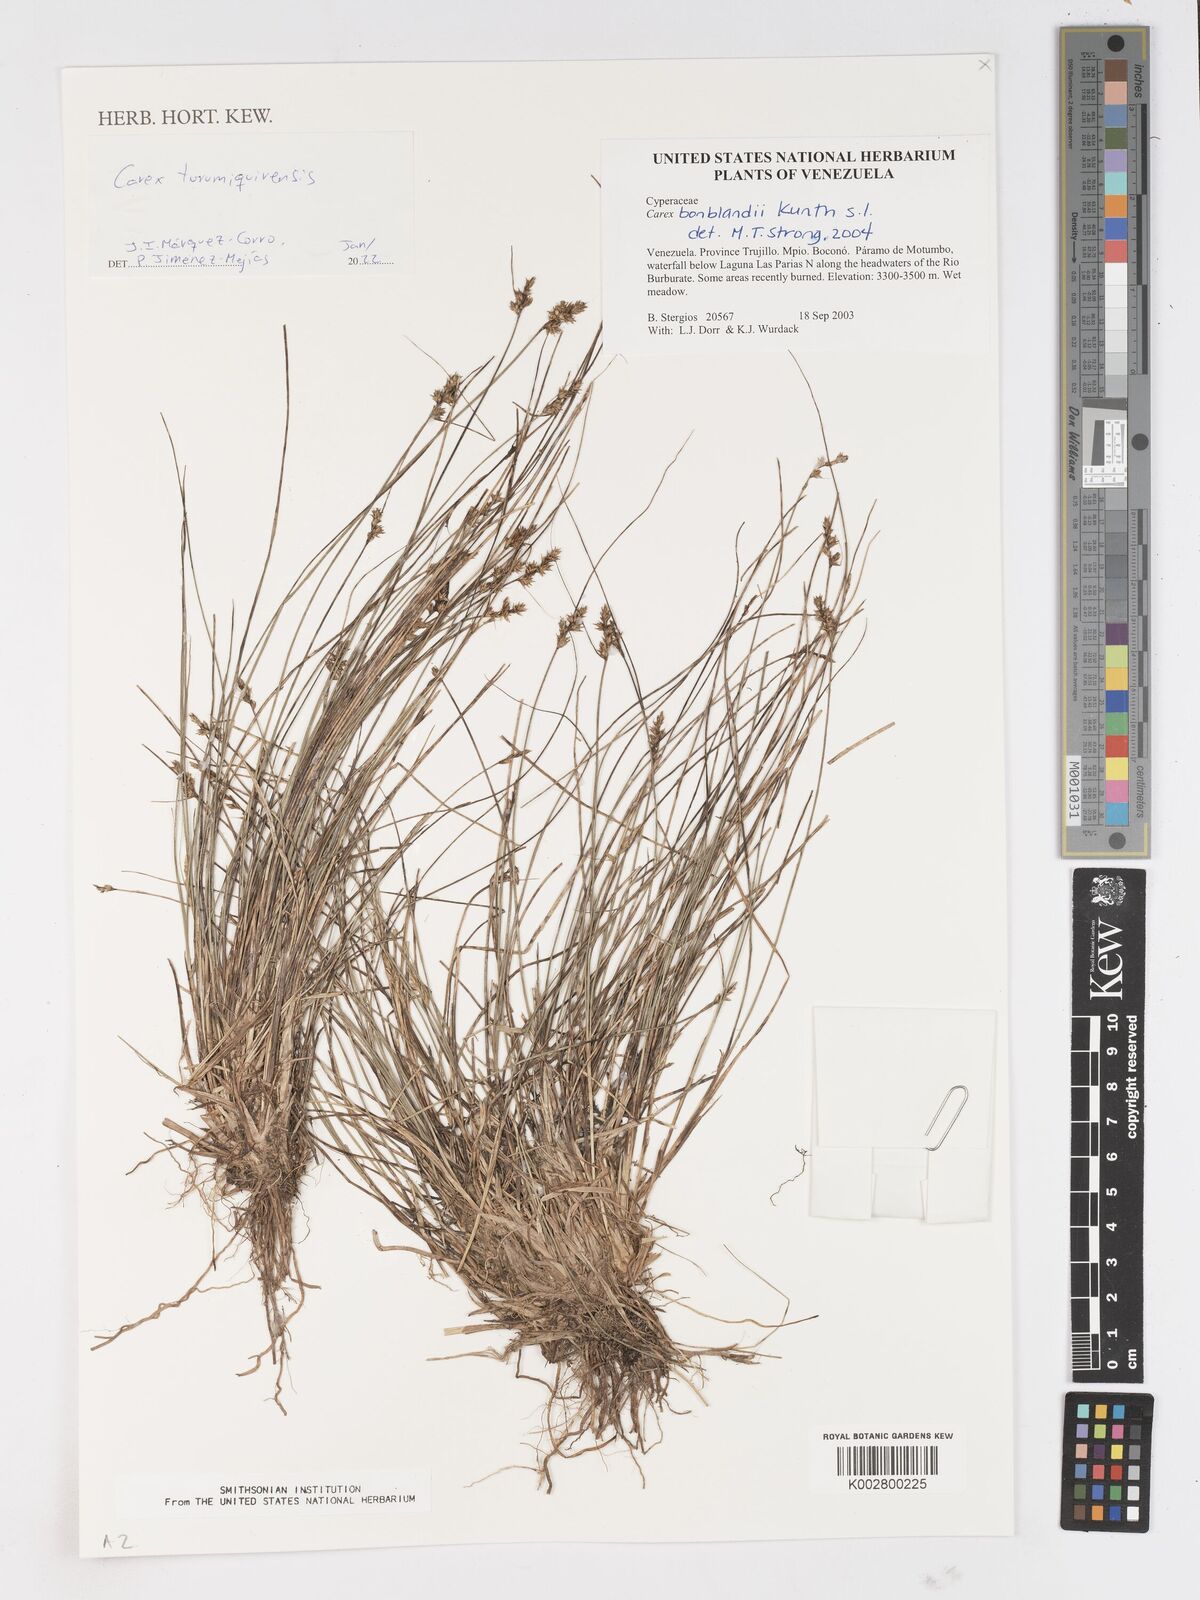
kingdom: Plantae
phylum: Tracheophyta
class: Liliopsida
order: Poales
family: Cyperaceae
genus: Carex
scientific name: Carex turumiquirensis
